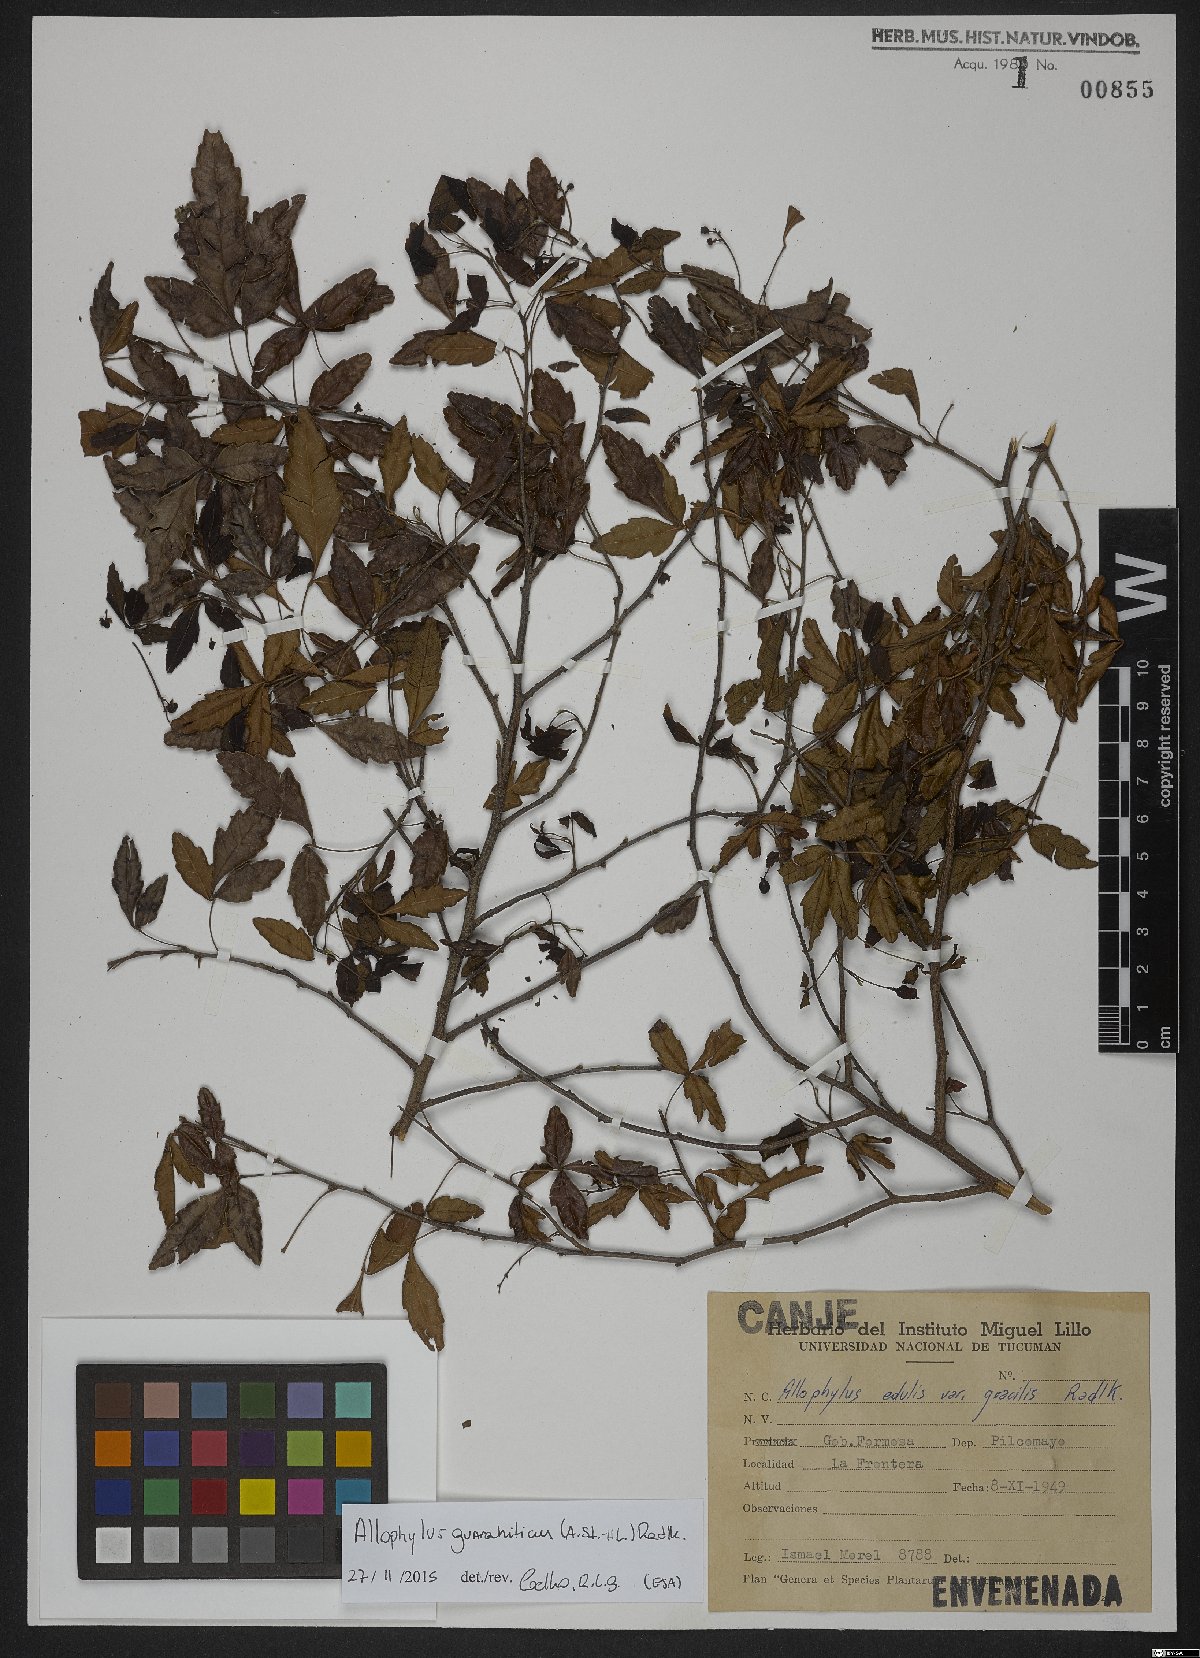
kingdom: Plantae
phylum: Tracheophyta
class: Magnoliopsida
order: Sapindales
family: Sapindaceae
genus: Allophylus
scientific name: Allophylus edulis
